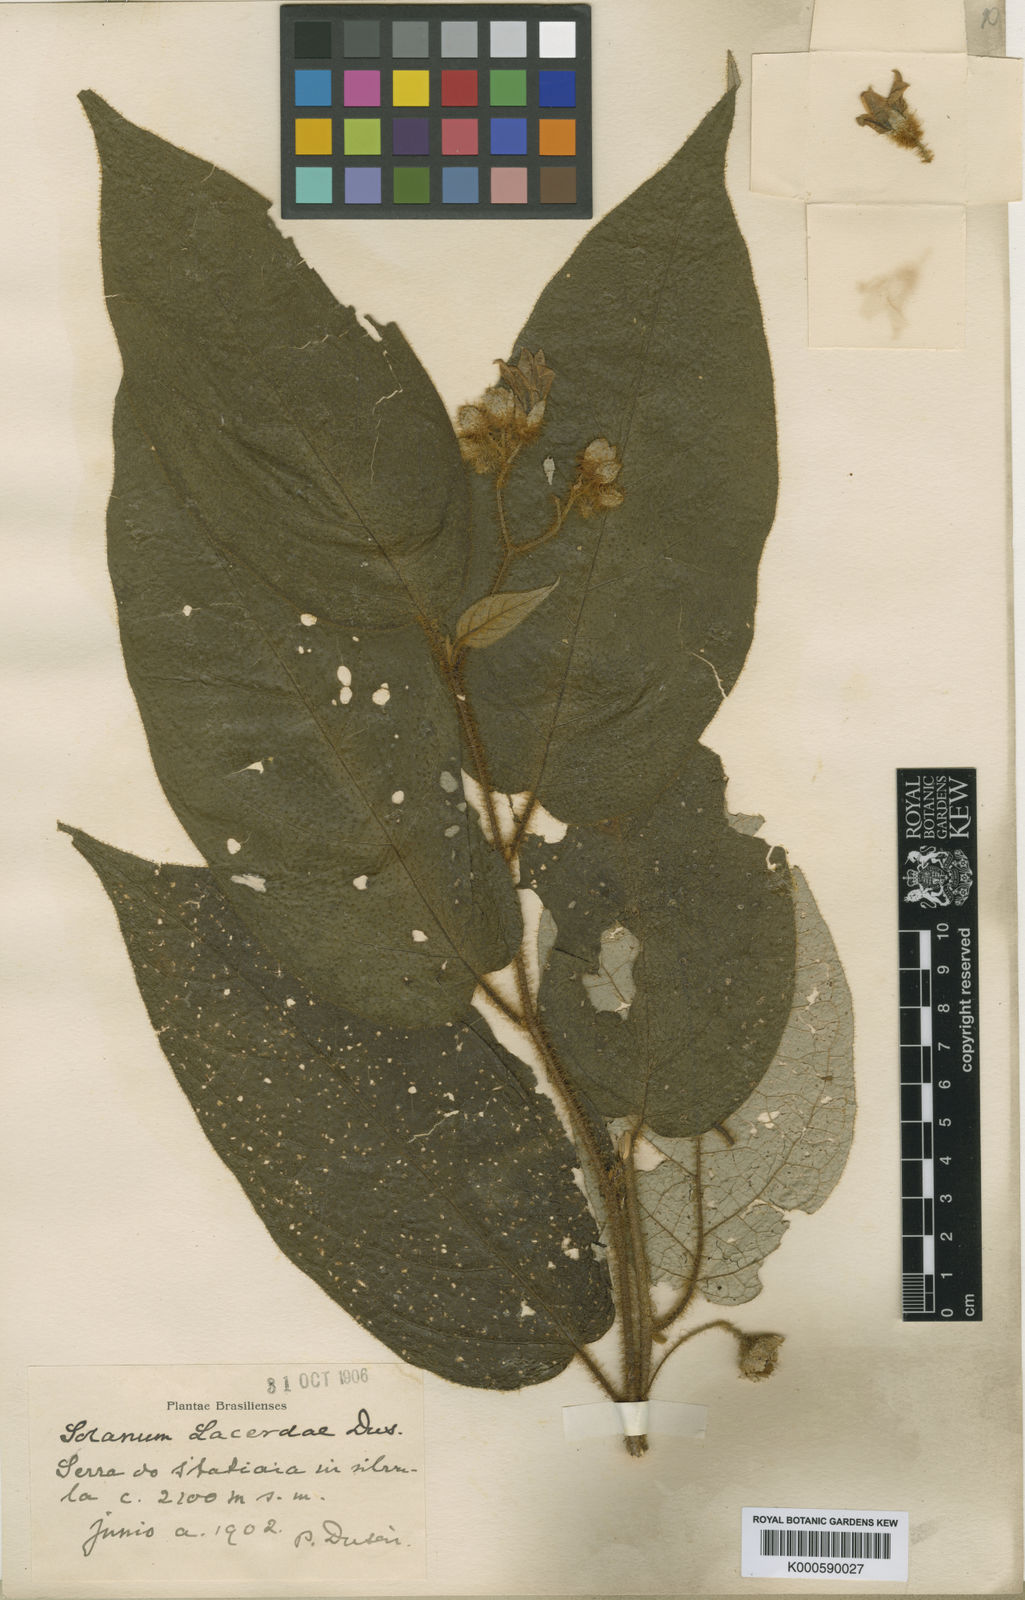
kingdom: Plantae
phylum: Tracheophyta
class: Magnoliopsida
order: Solanales
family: Solanaceae
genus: Solanum
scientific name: Solanum
